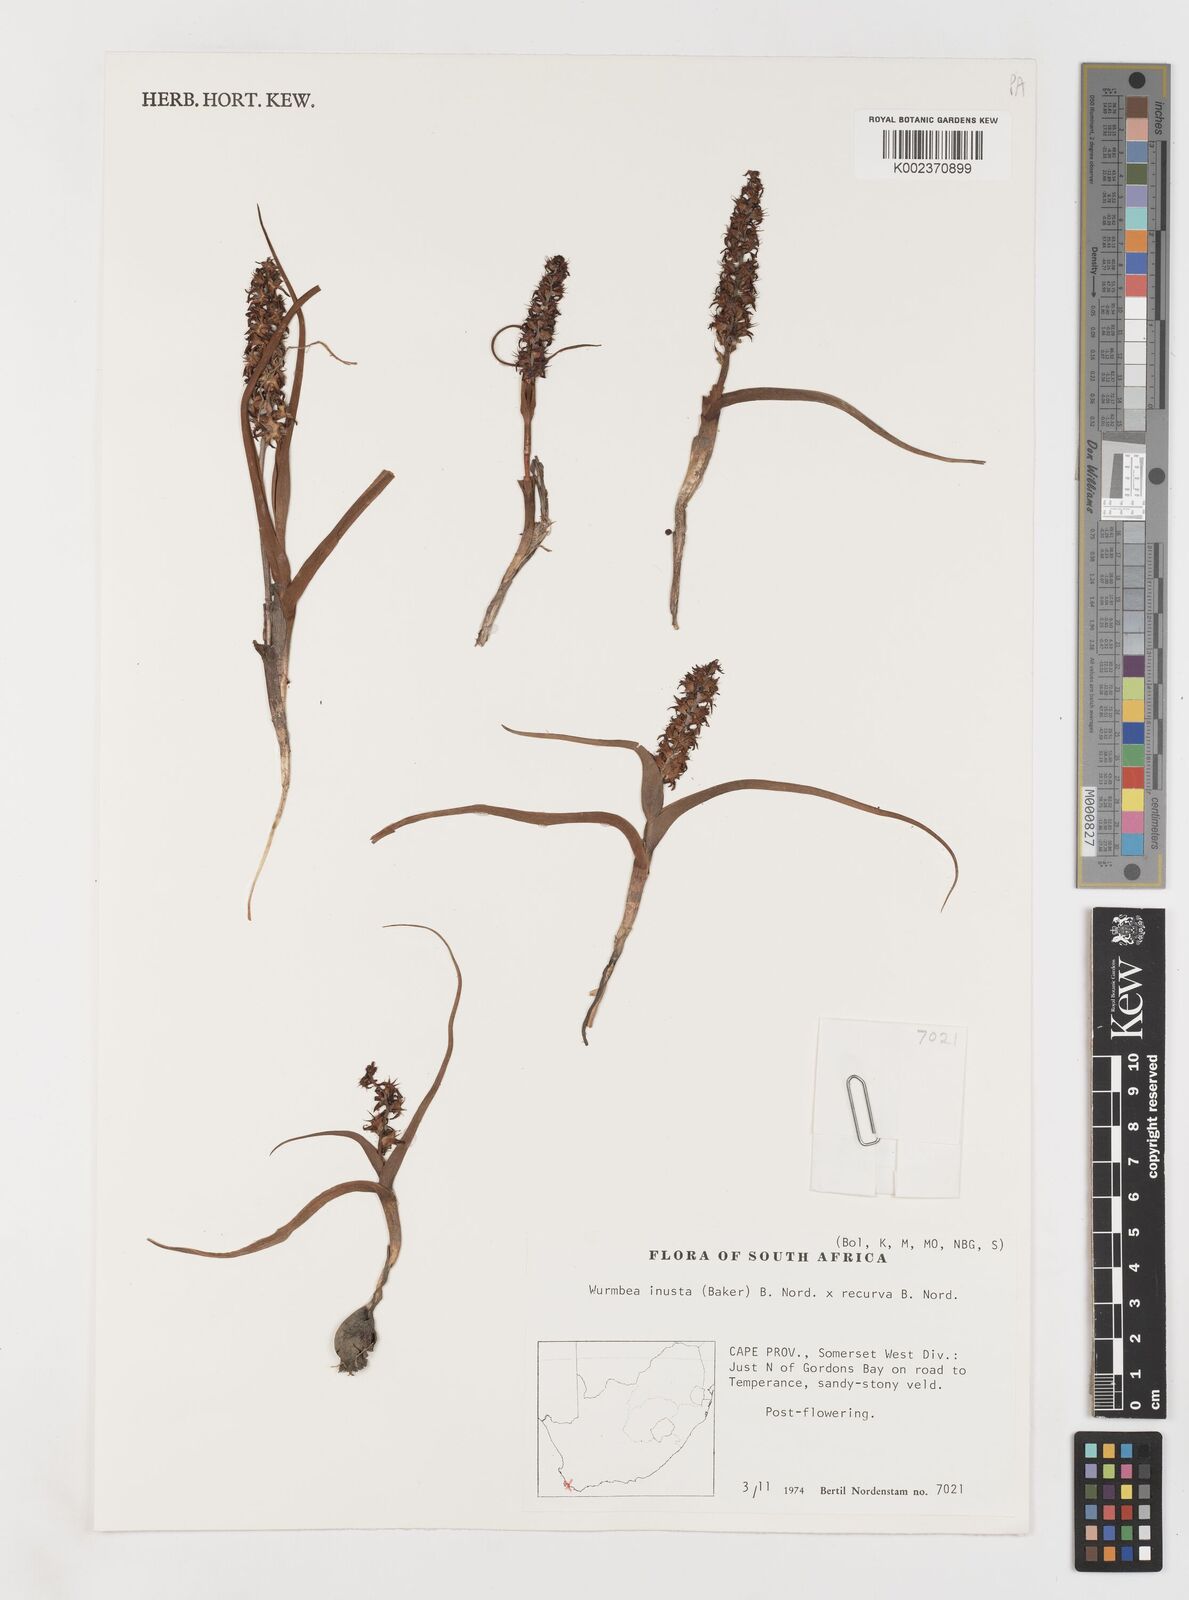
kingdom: Plantae
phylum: Tracheophyta
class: Liliopsida
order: Liliales
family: Colchicaceae
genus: Wurmbea
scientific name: Wurmbea inusta
